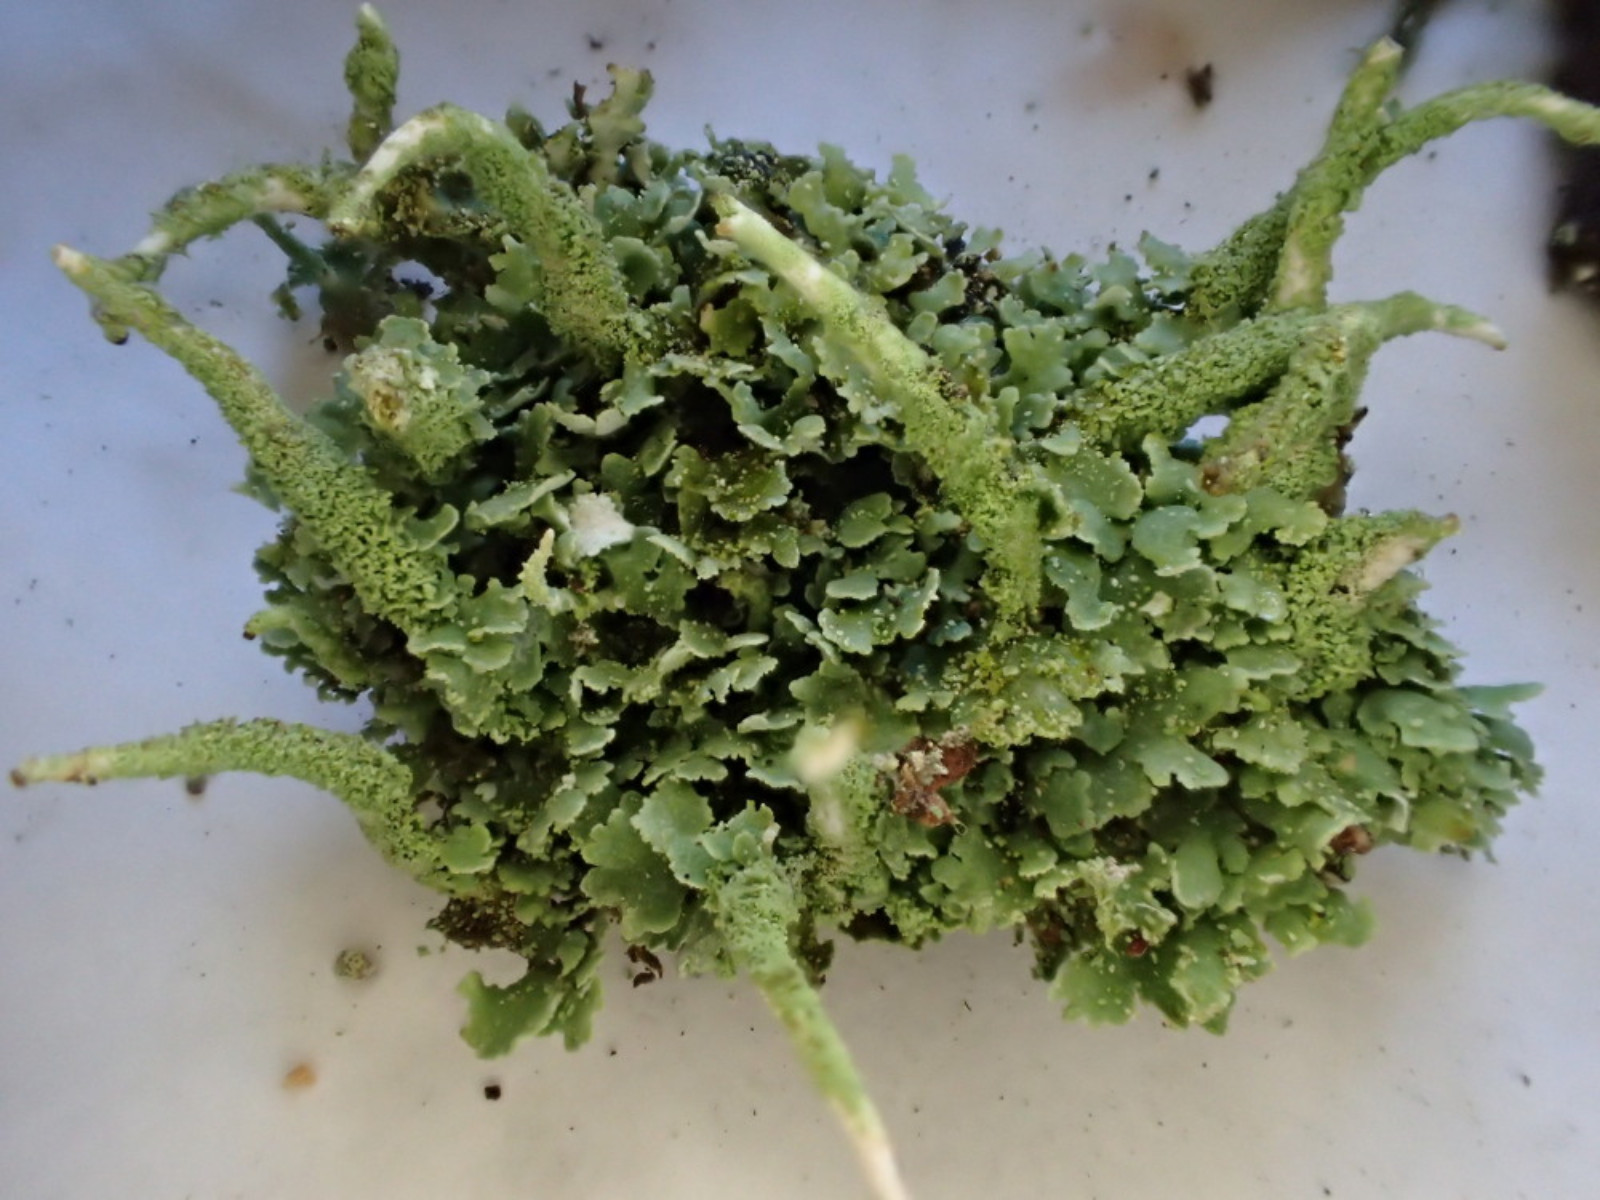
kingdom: Fungi
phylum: Ascomycota
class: Lecanoromycetes
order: Lecanorales
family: Cladoniaceae
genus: Cladonia
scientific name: Cladonia glauca
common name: grågrøn bægerlav
